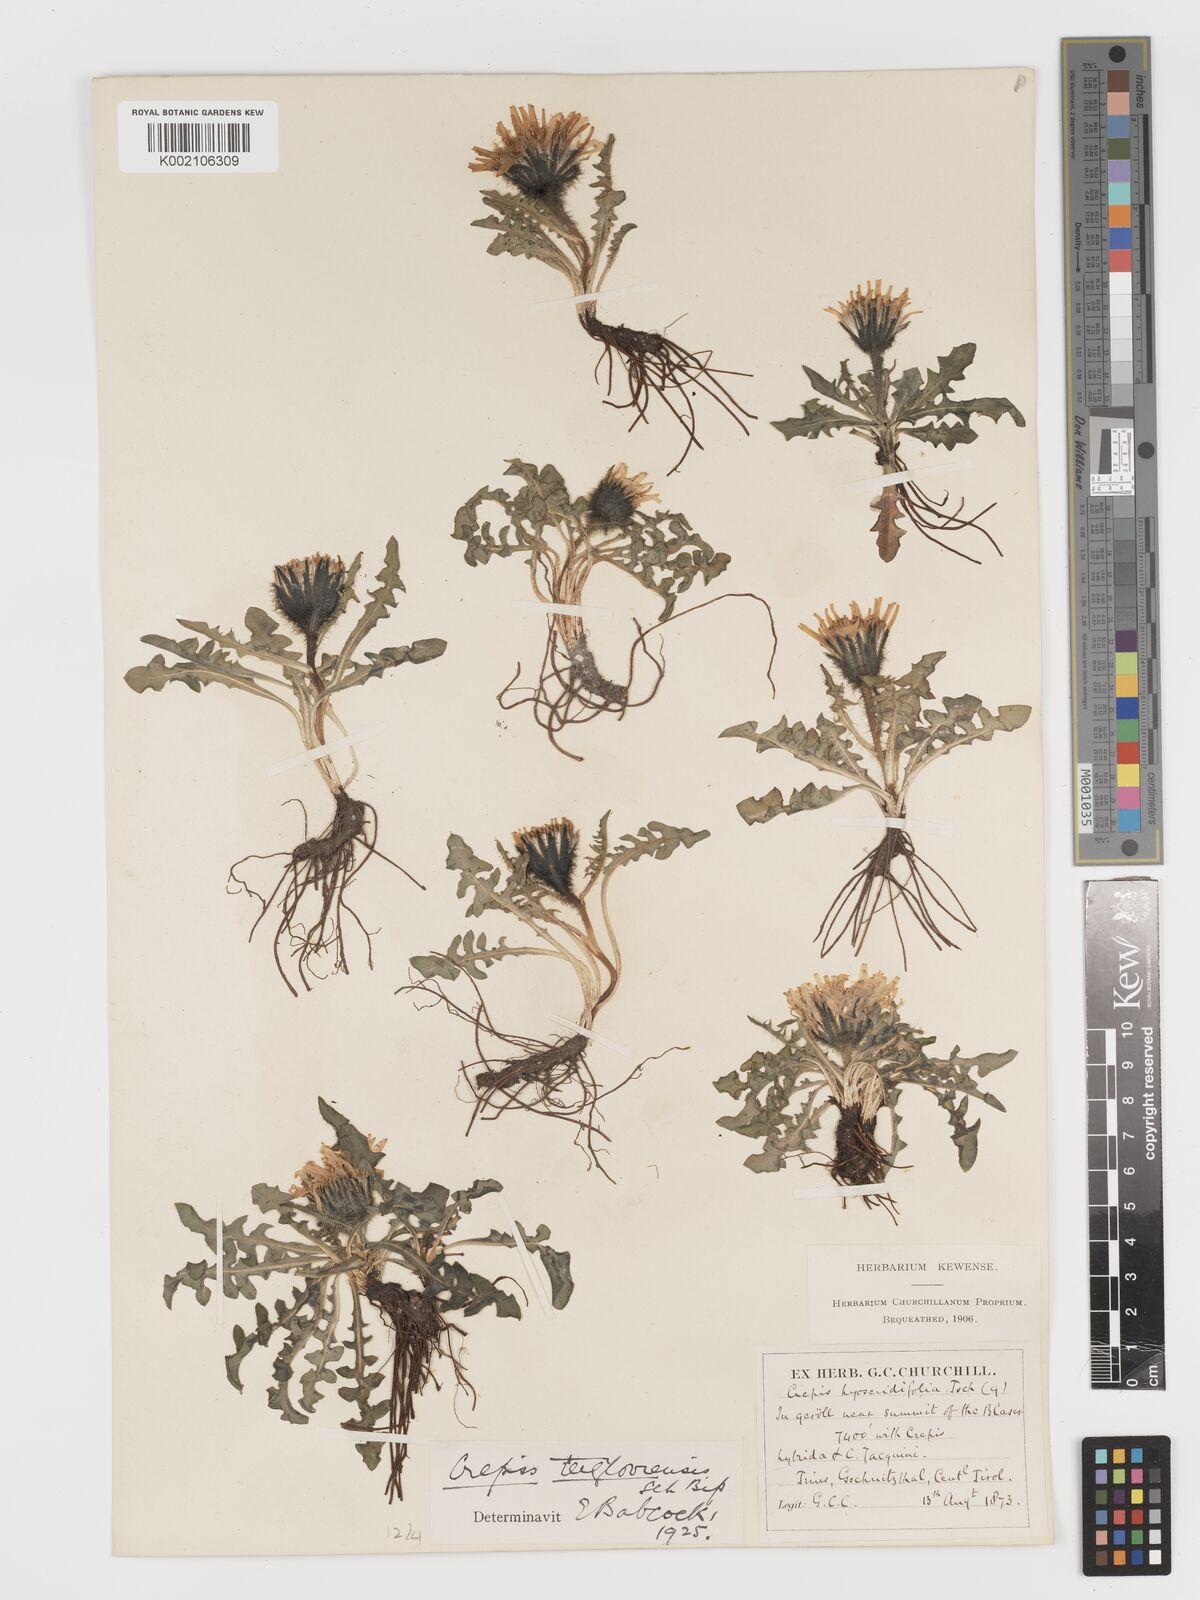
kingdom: Plantae
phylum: Tracheophyta
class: Magnoliopsida
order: Asterales
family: Asteraceae
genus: Crepis
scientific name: Crepis terglouensis
